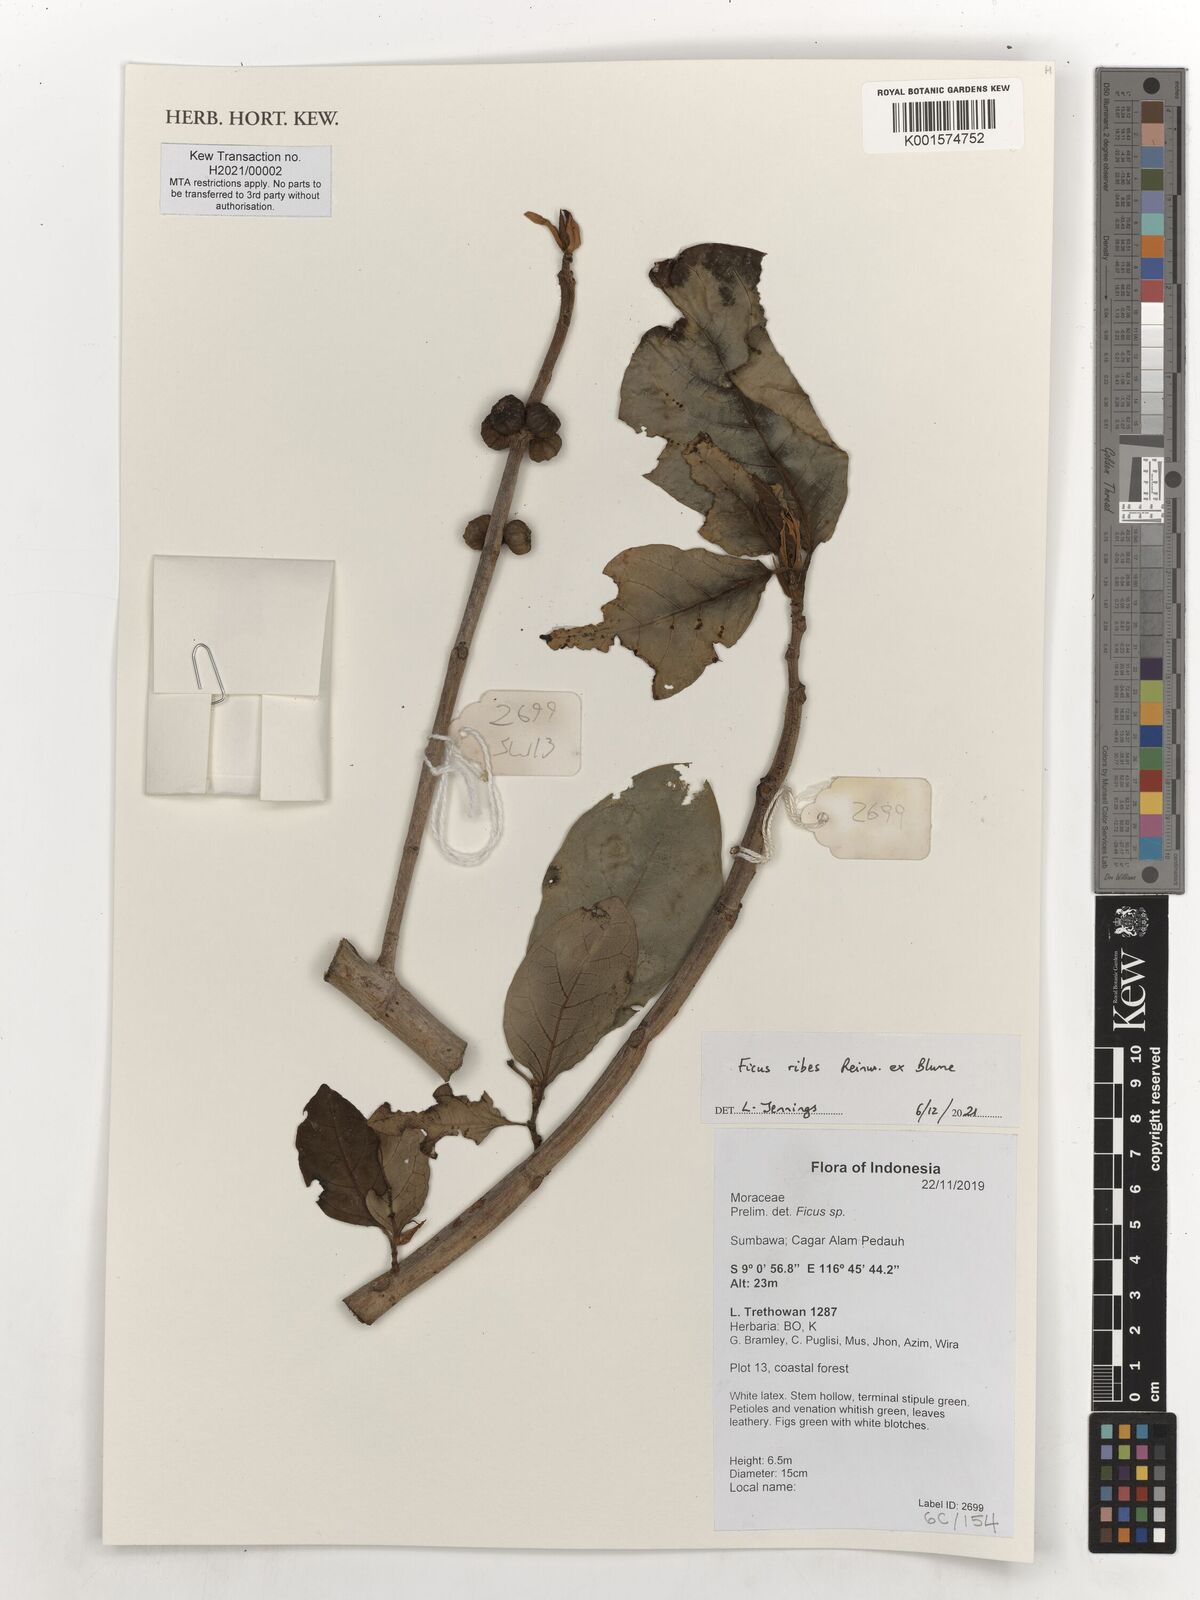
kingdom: Plantae
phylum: Tracheophyta
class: Magnoliopsida
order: Rosales
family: Moraceae
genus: Ficus
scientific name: Ficus ribes
